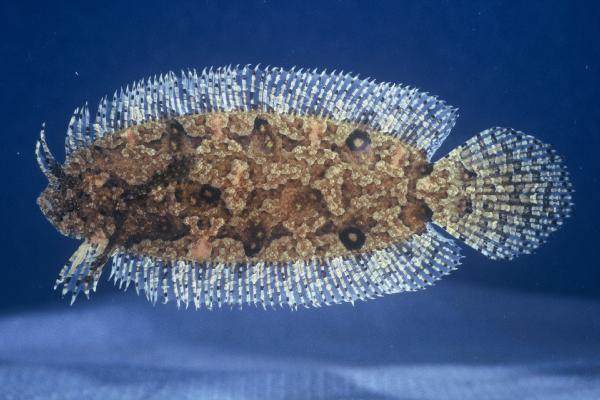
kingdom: Animalia
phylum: Chordata
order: Pleuronectiformes
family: Samaridae
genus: Samariscus
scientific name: Samariscus nielseni
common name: Nielsen's righteye flounder
